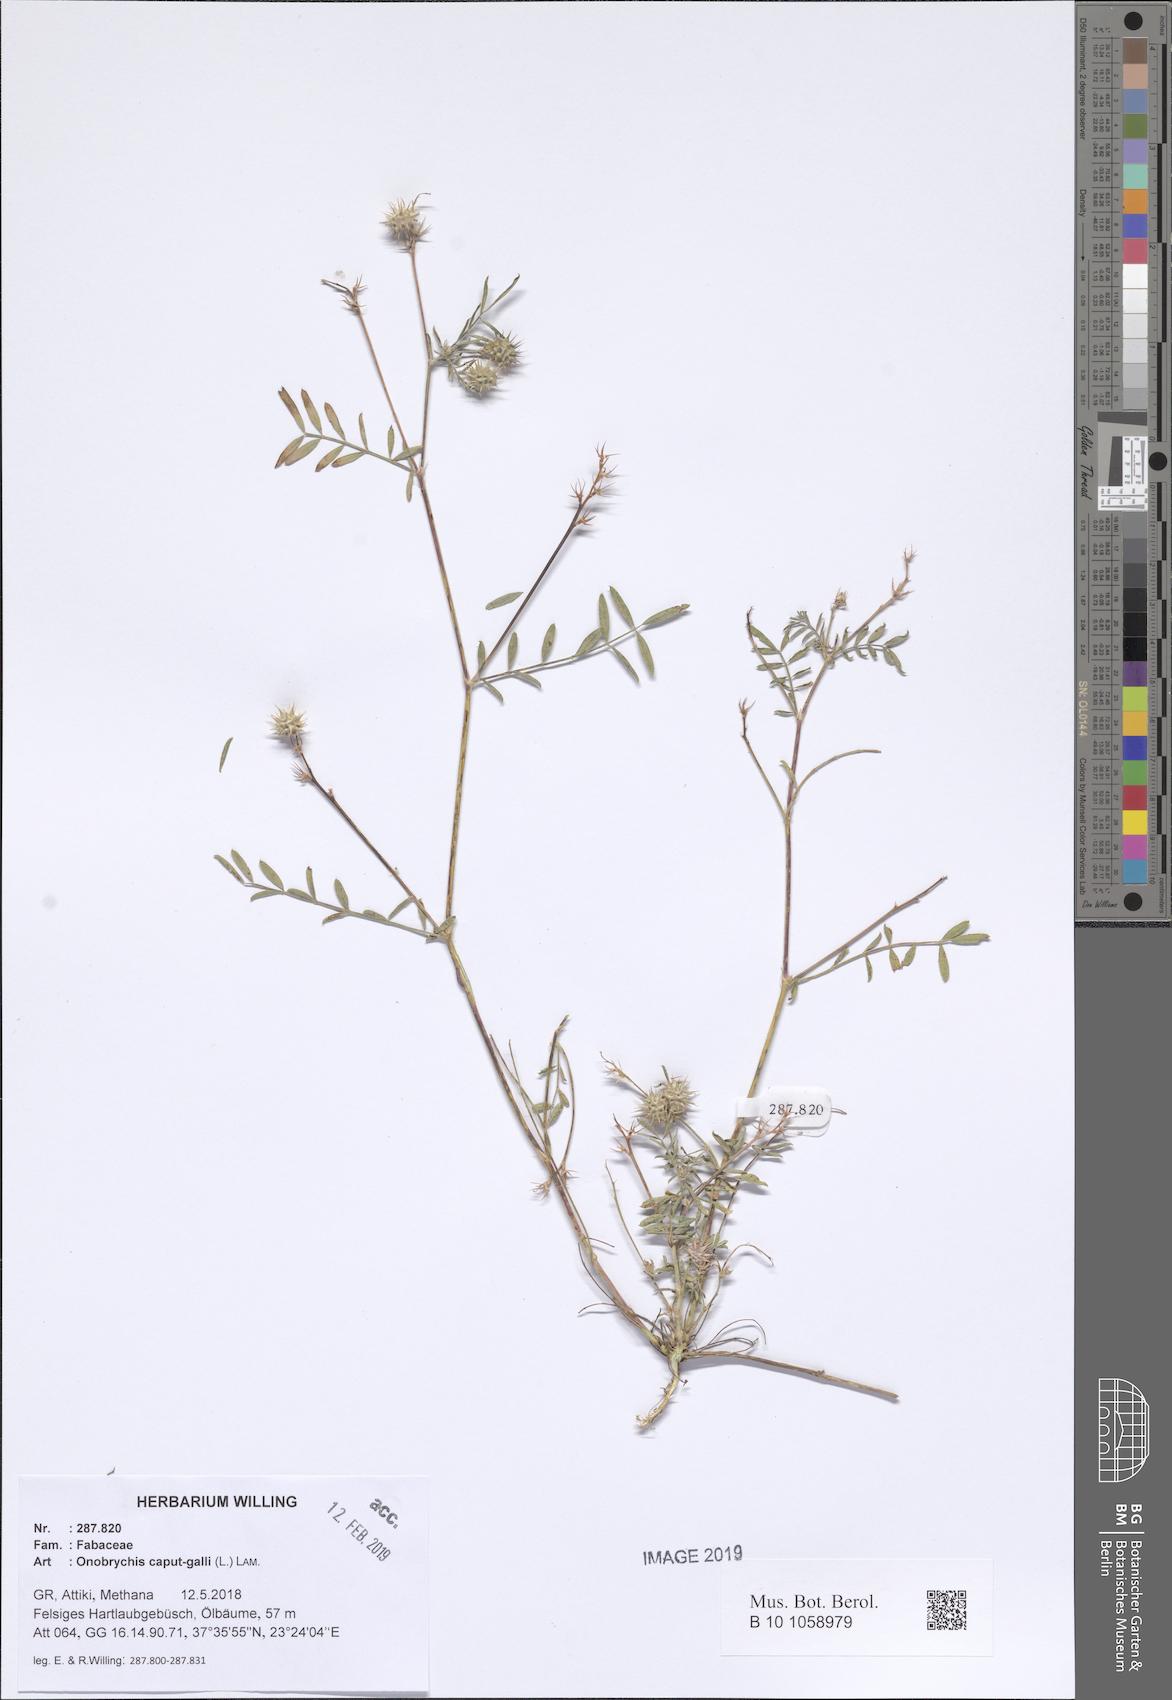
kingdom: Plantae
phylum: Tracheophyta
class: Magnoliopsida
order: Fabales
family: Fabaceae
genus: Onobrychis
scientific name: Onobrychis caput-galli
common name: Cockscomb sainfoin
